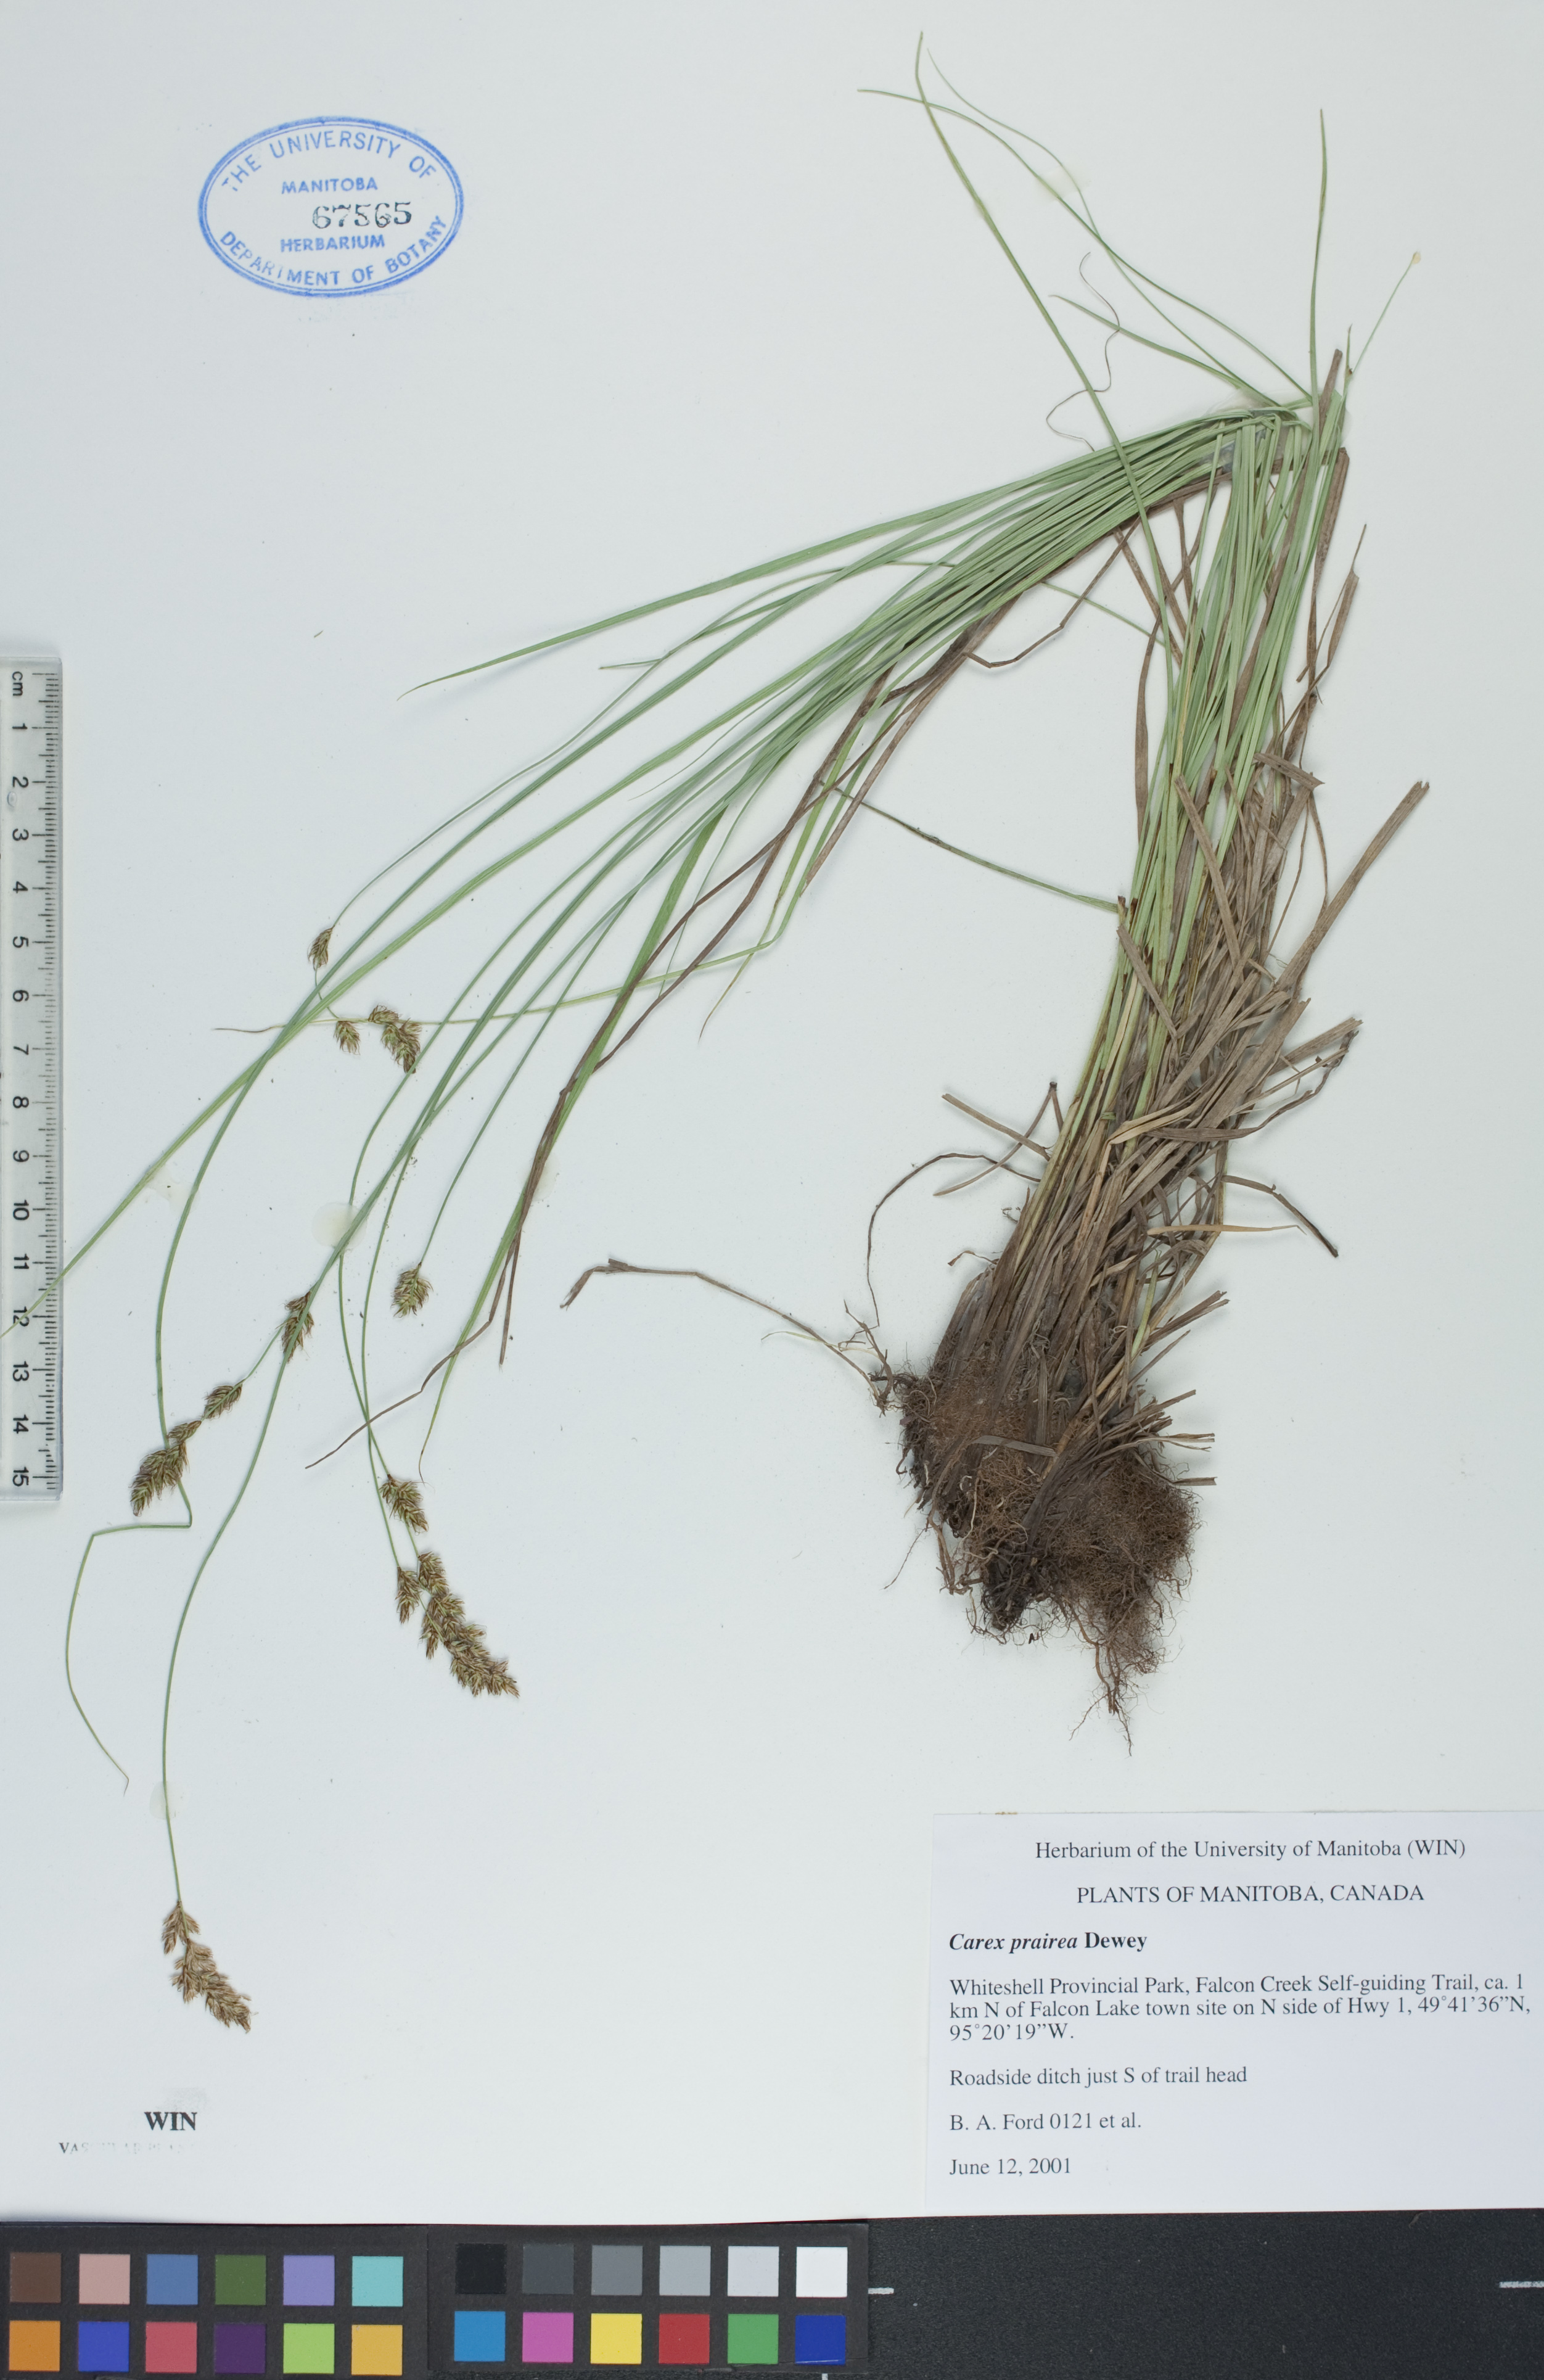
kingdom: Plantae
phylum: Tracheophyta
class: Liliopsida
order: Poales
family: Cyperaceae
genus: Carex
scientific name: Carex prairea
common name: Prairie sedge
